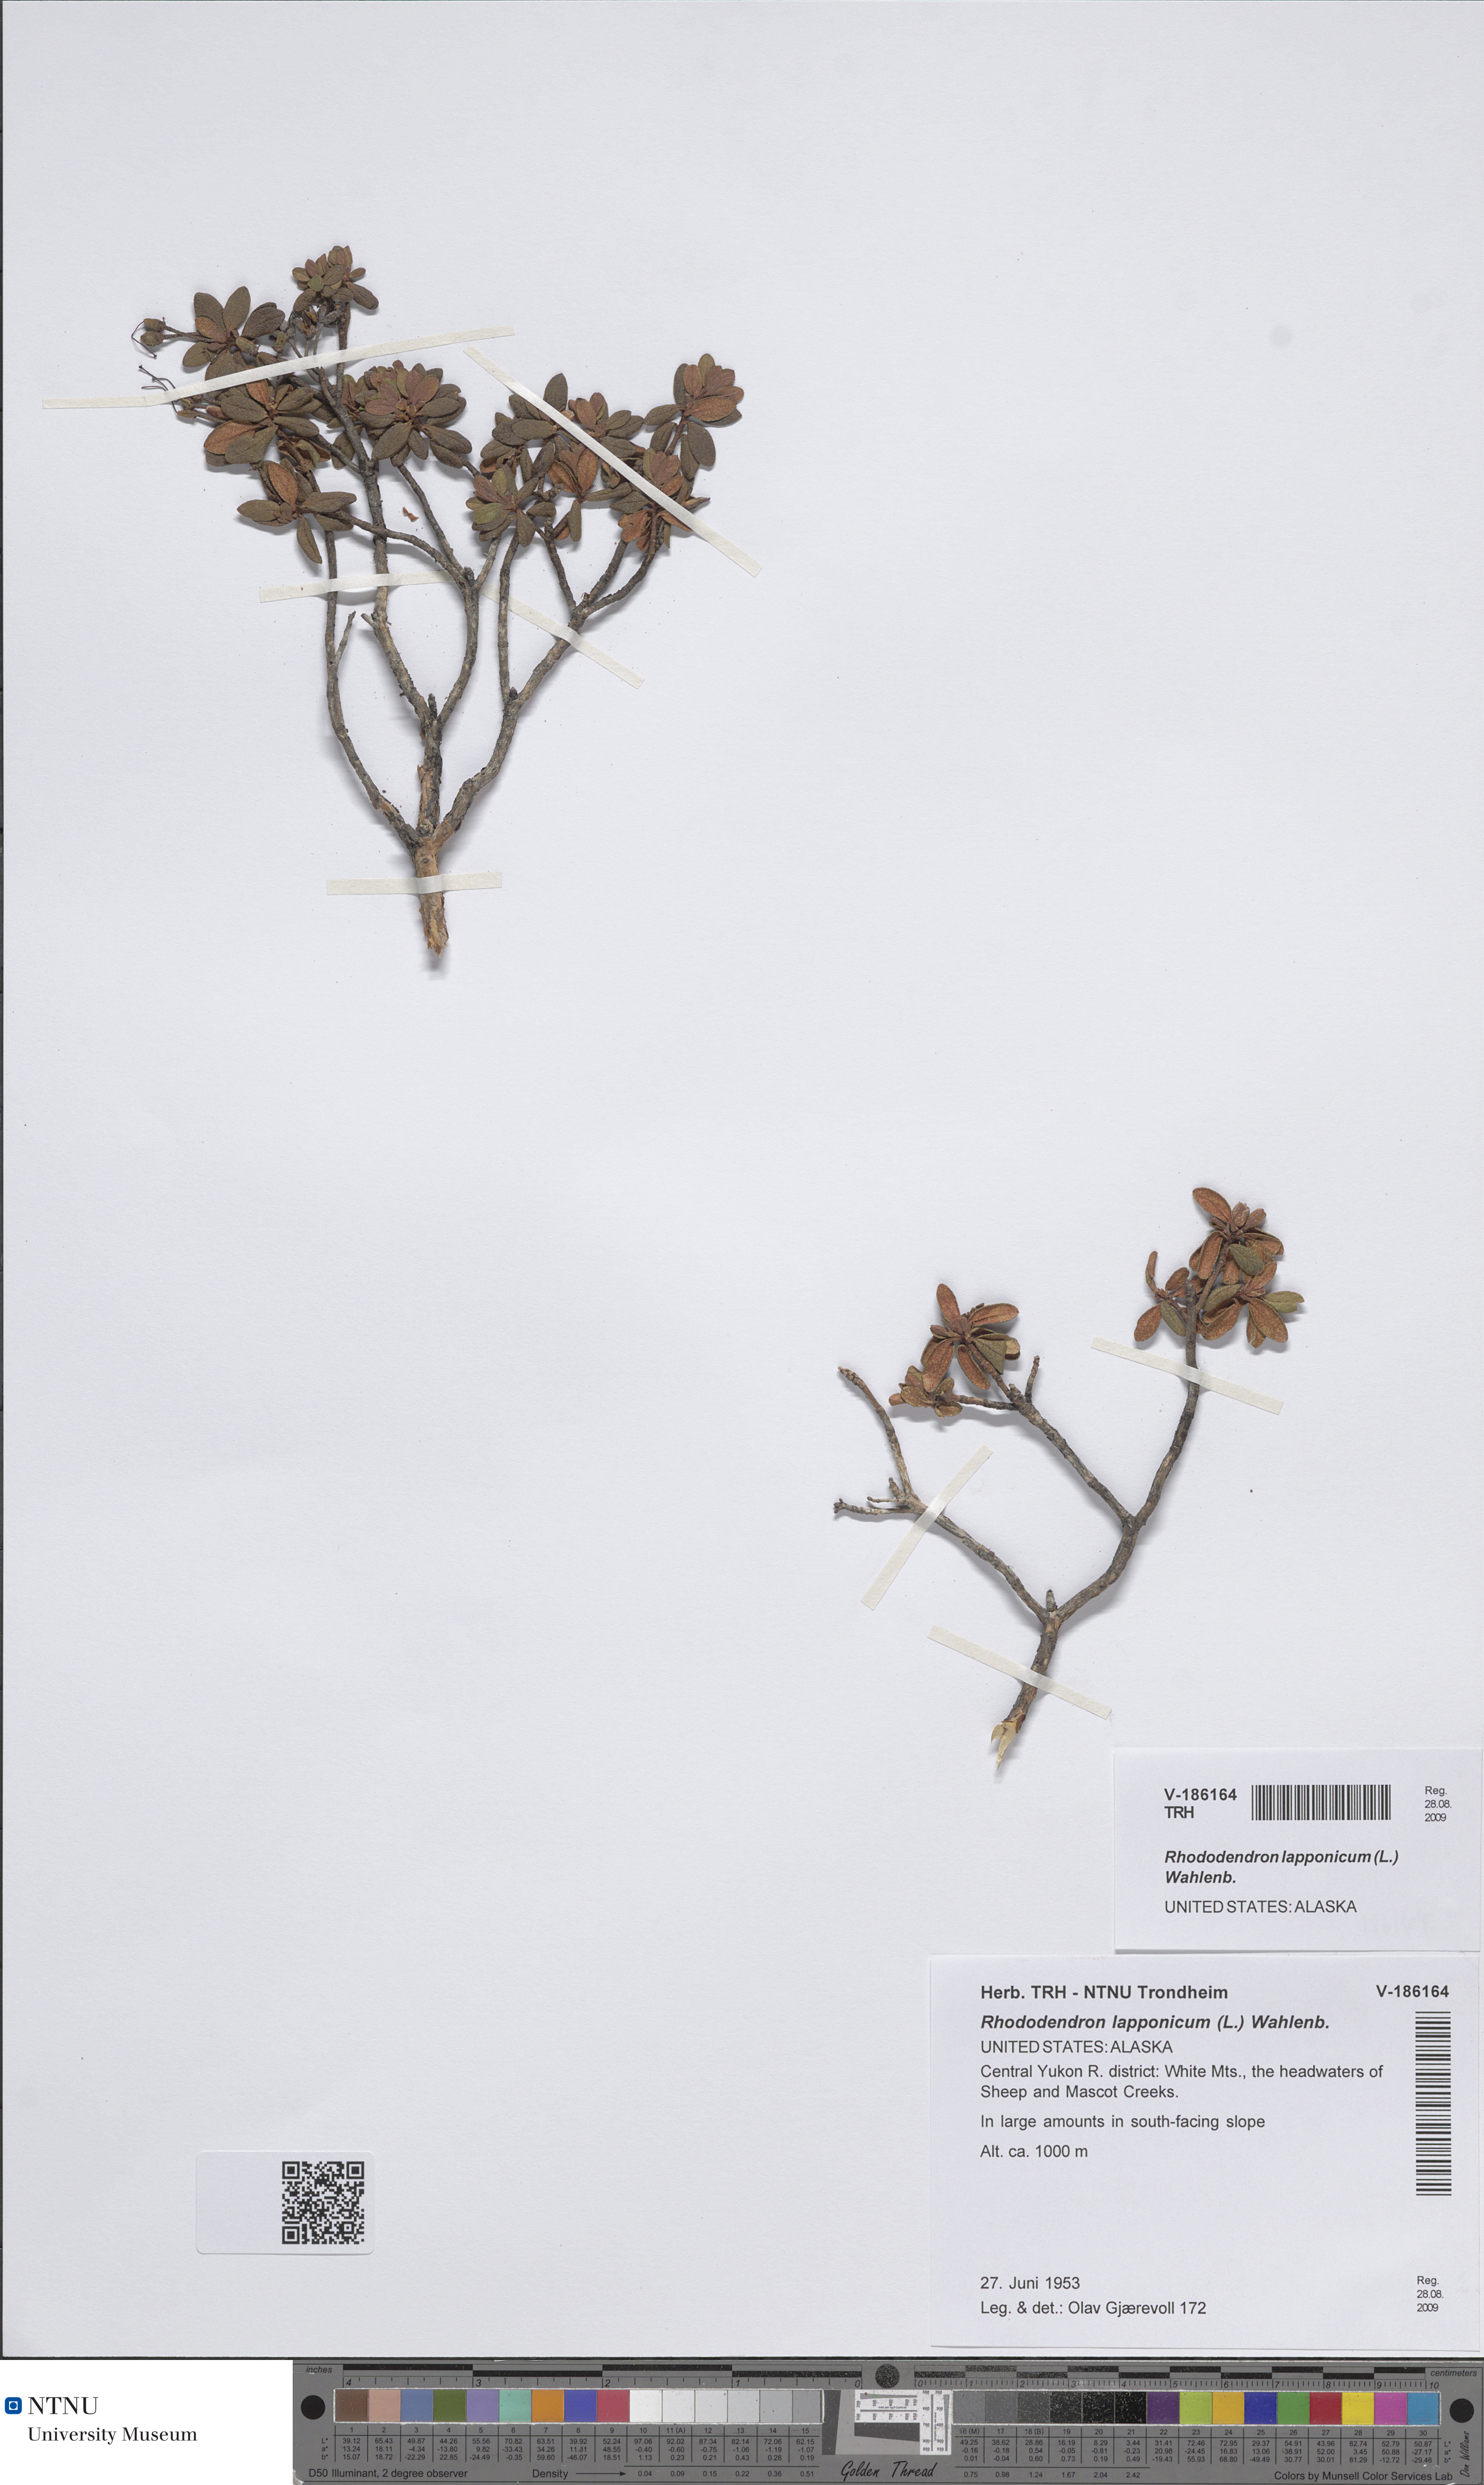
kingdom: Plantae
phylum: Tracheophyta
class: Magnoliopsida
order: Ericales
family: Ericaceae
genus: Rhododendron
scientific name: Rhododendron lapponicum
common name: Lapland rhododendron
